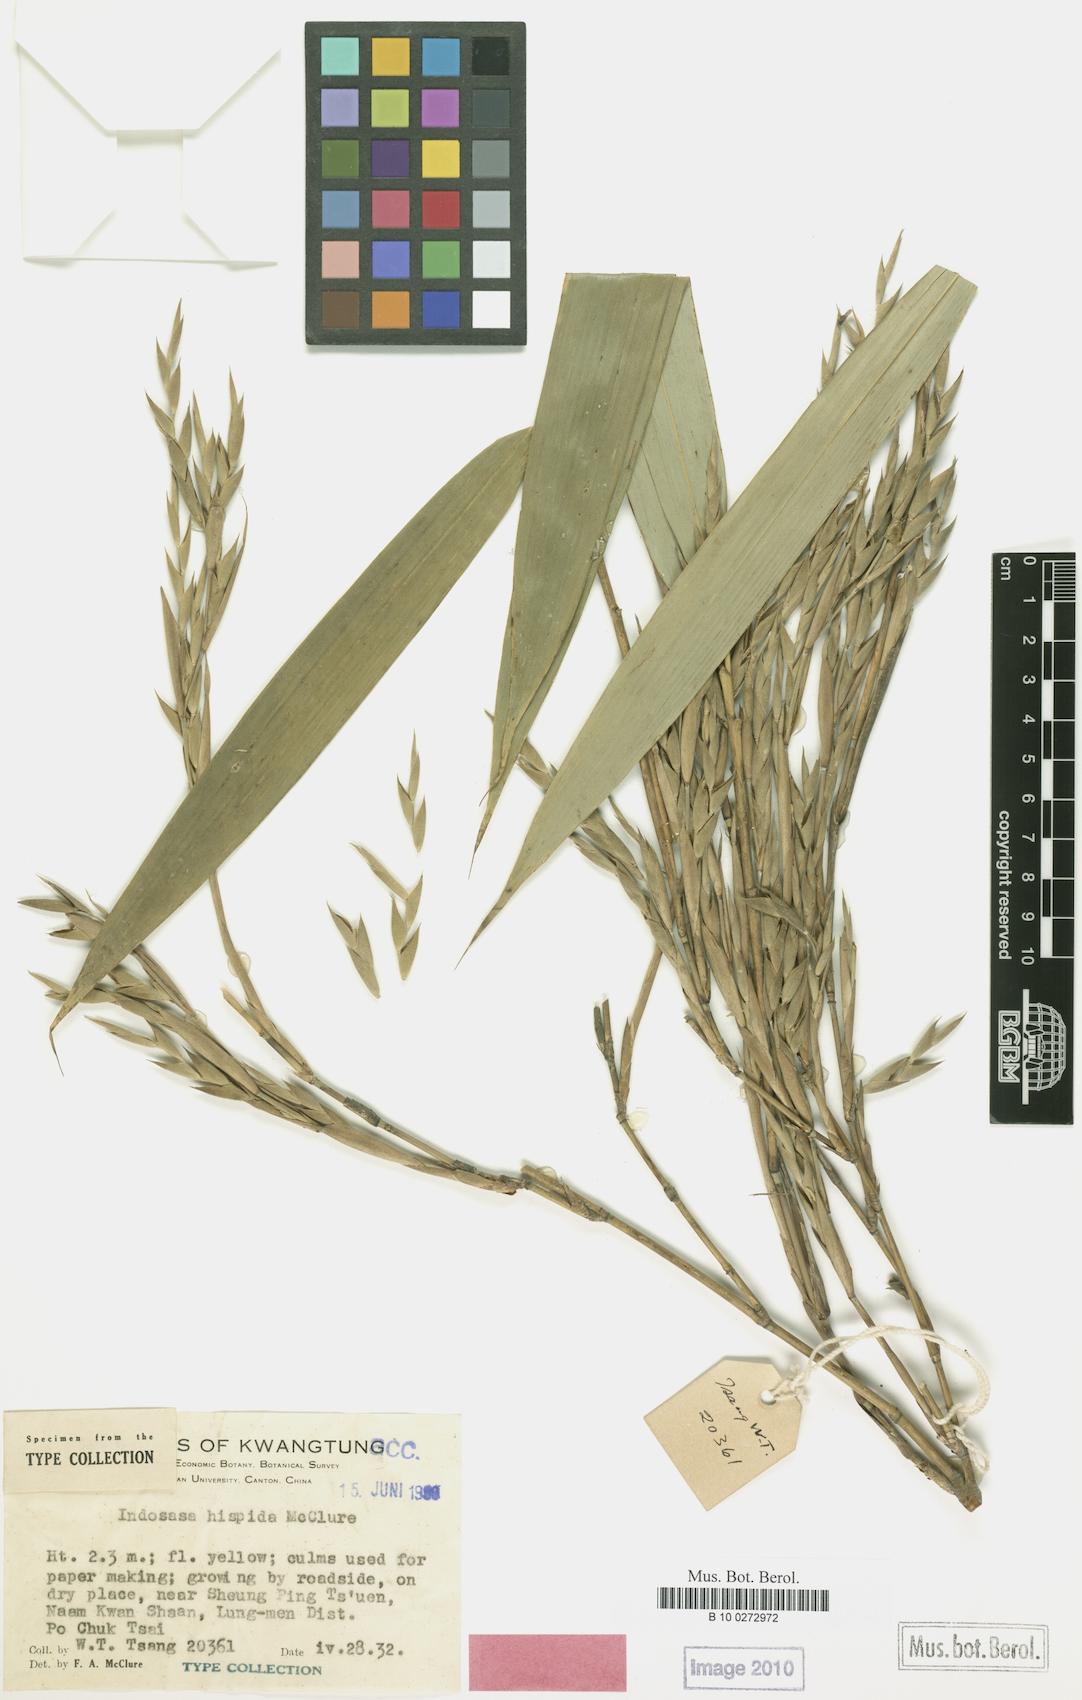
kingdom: Plantae
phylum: Tracheophyta
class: Liliopsida
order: Poales
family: Poaceae
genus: Indosasa
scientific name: Indosasa hispida
